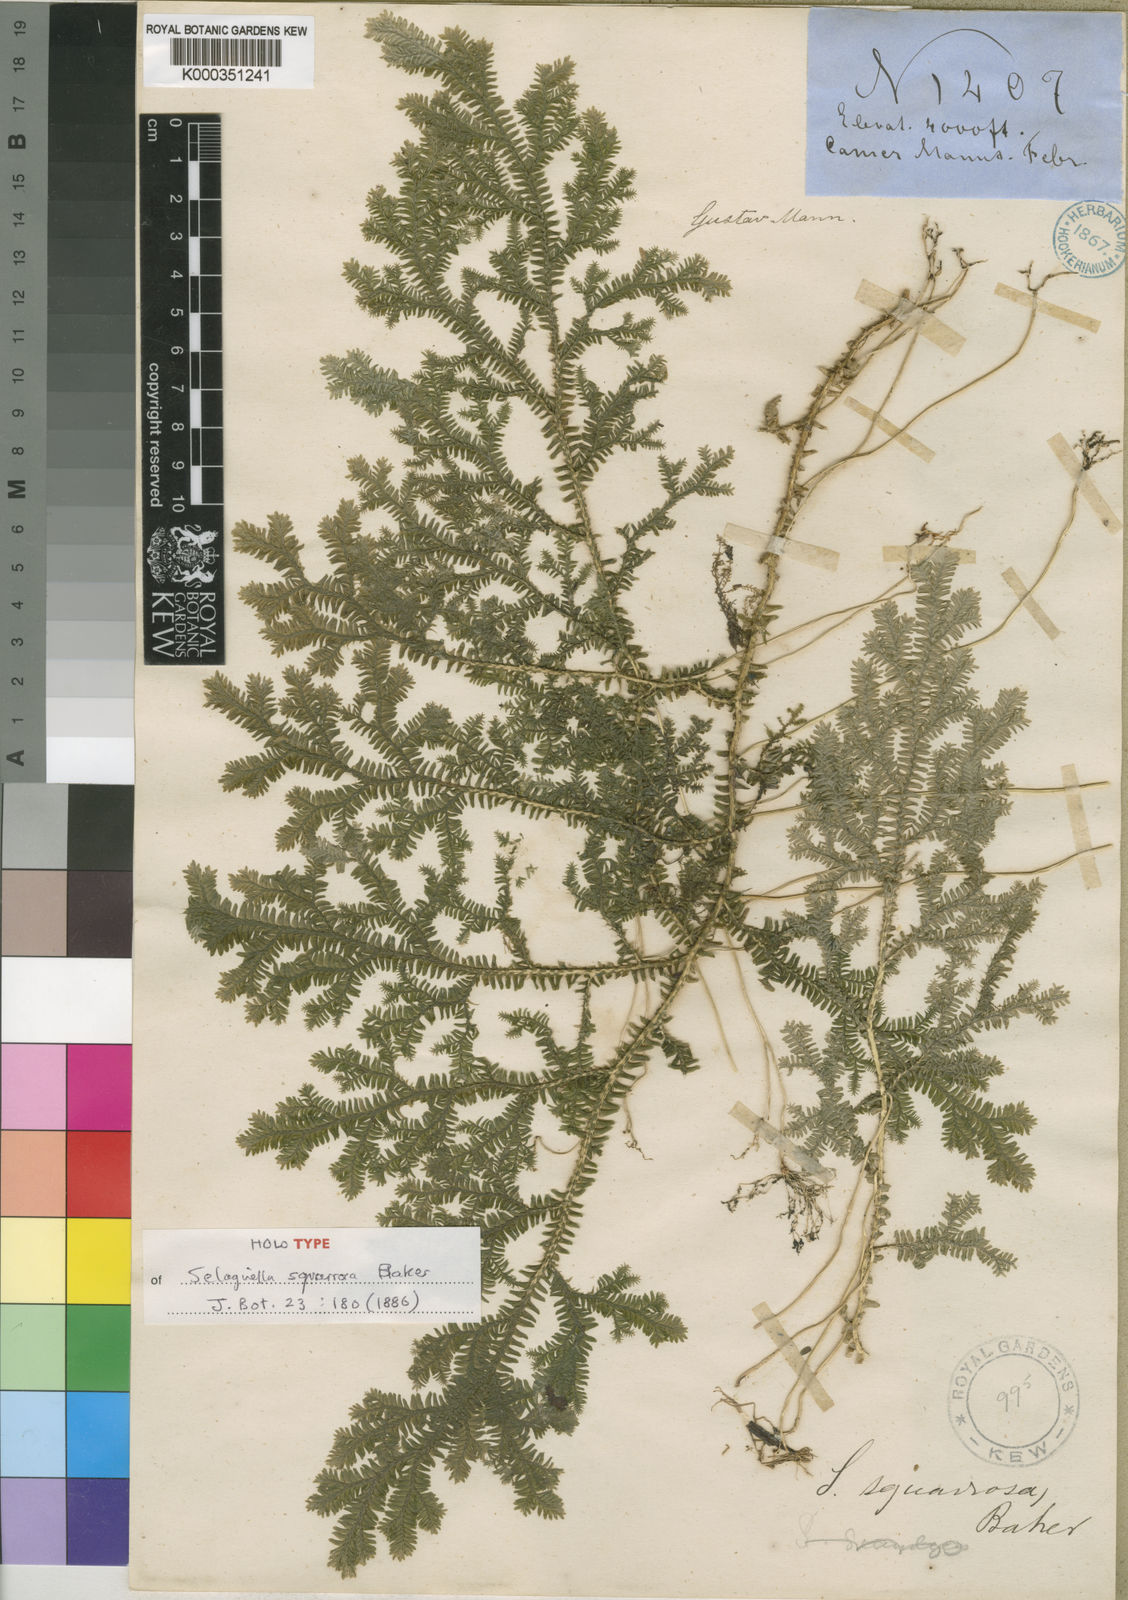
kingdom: Plantae
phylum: Tracheophyta
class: Lycopodiopsida
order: Selaginellales
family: Selaginellaceae
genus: Selaginella
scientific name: Selaginella squarrosa
